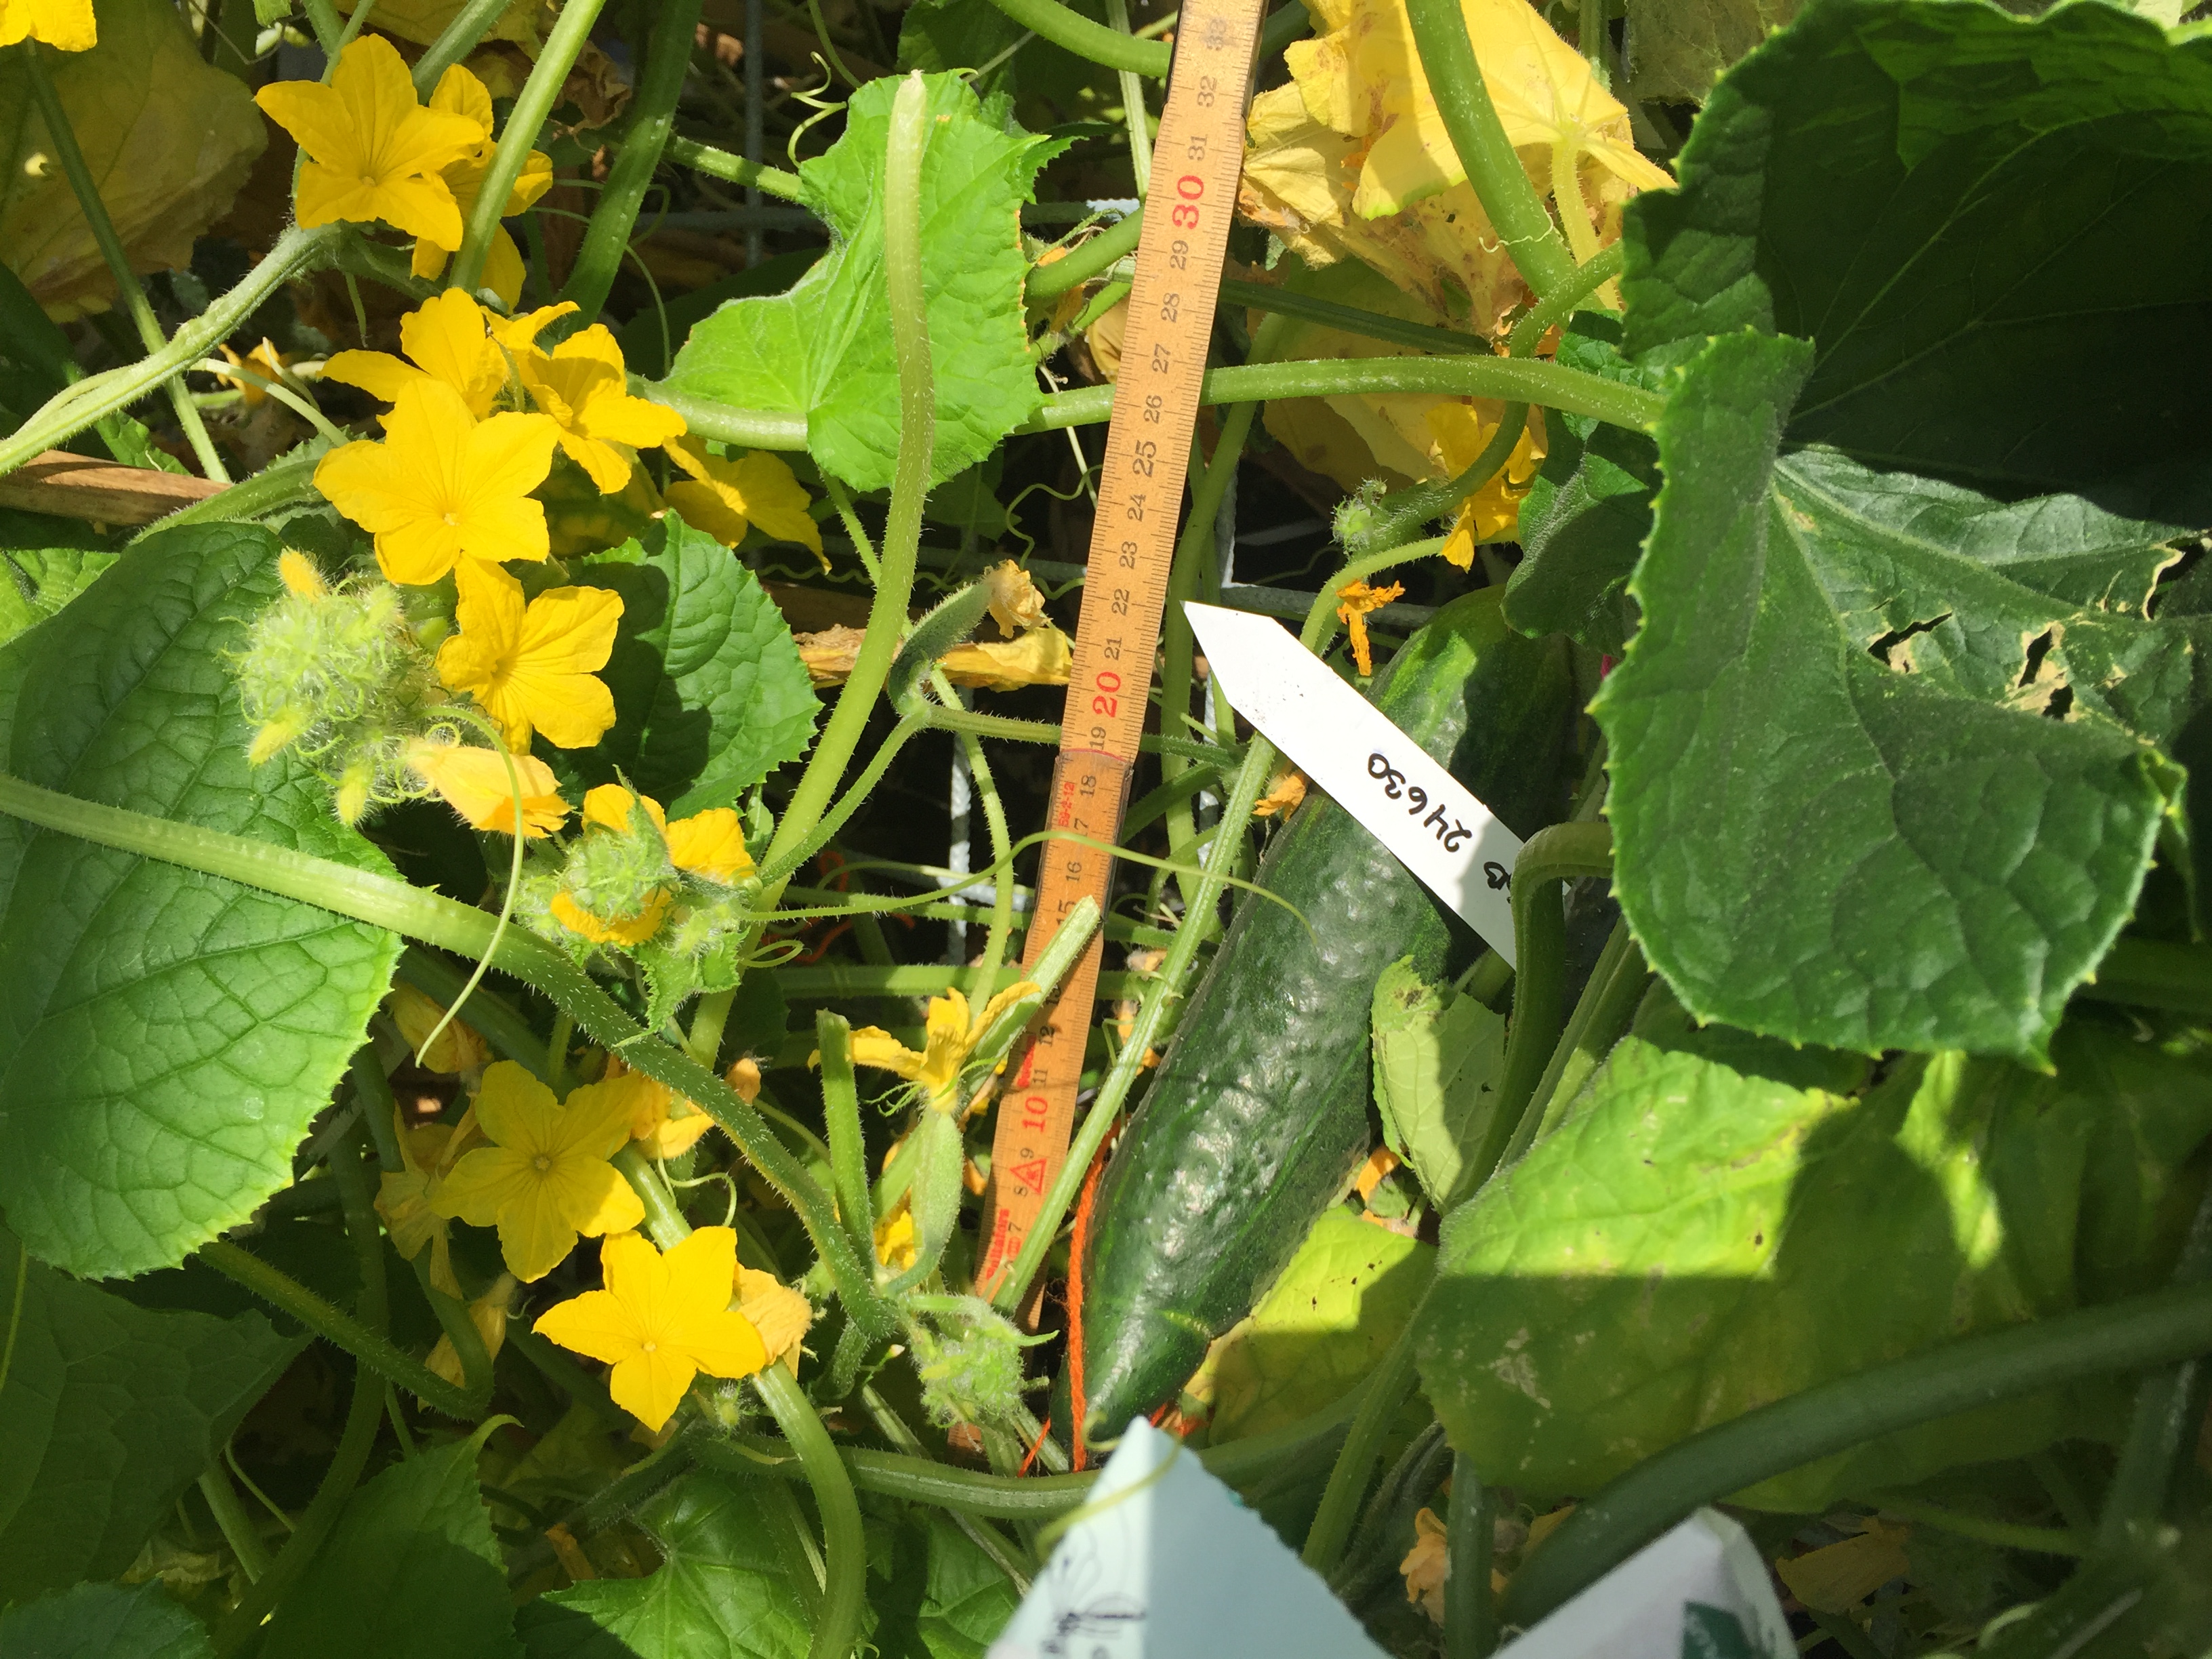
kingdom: Plantae
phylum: Tracheophyta
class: Magnoliopsida
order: Cucurbitales
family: Cucurbitaceae
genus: Cucumis
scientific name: Cucumis sativus
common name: Cucumber
